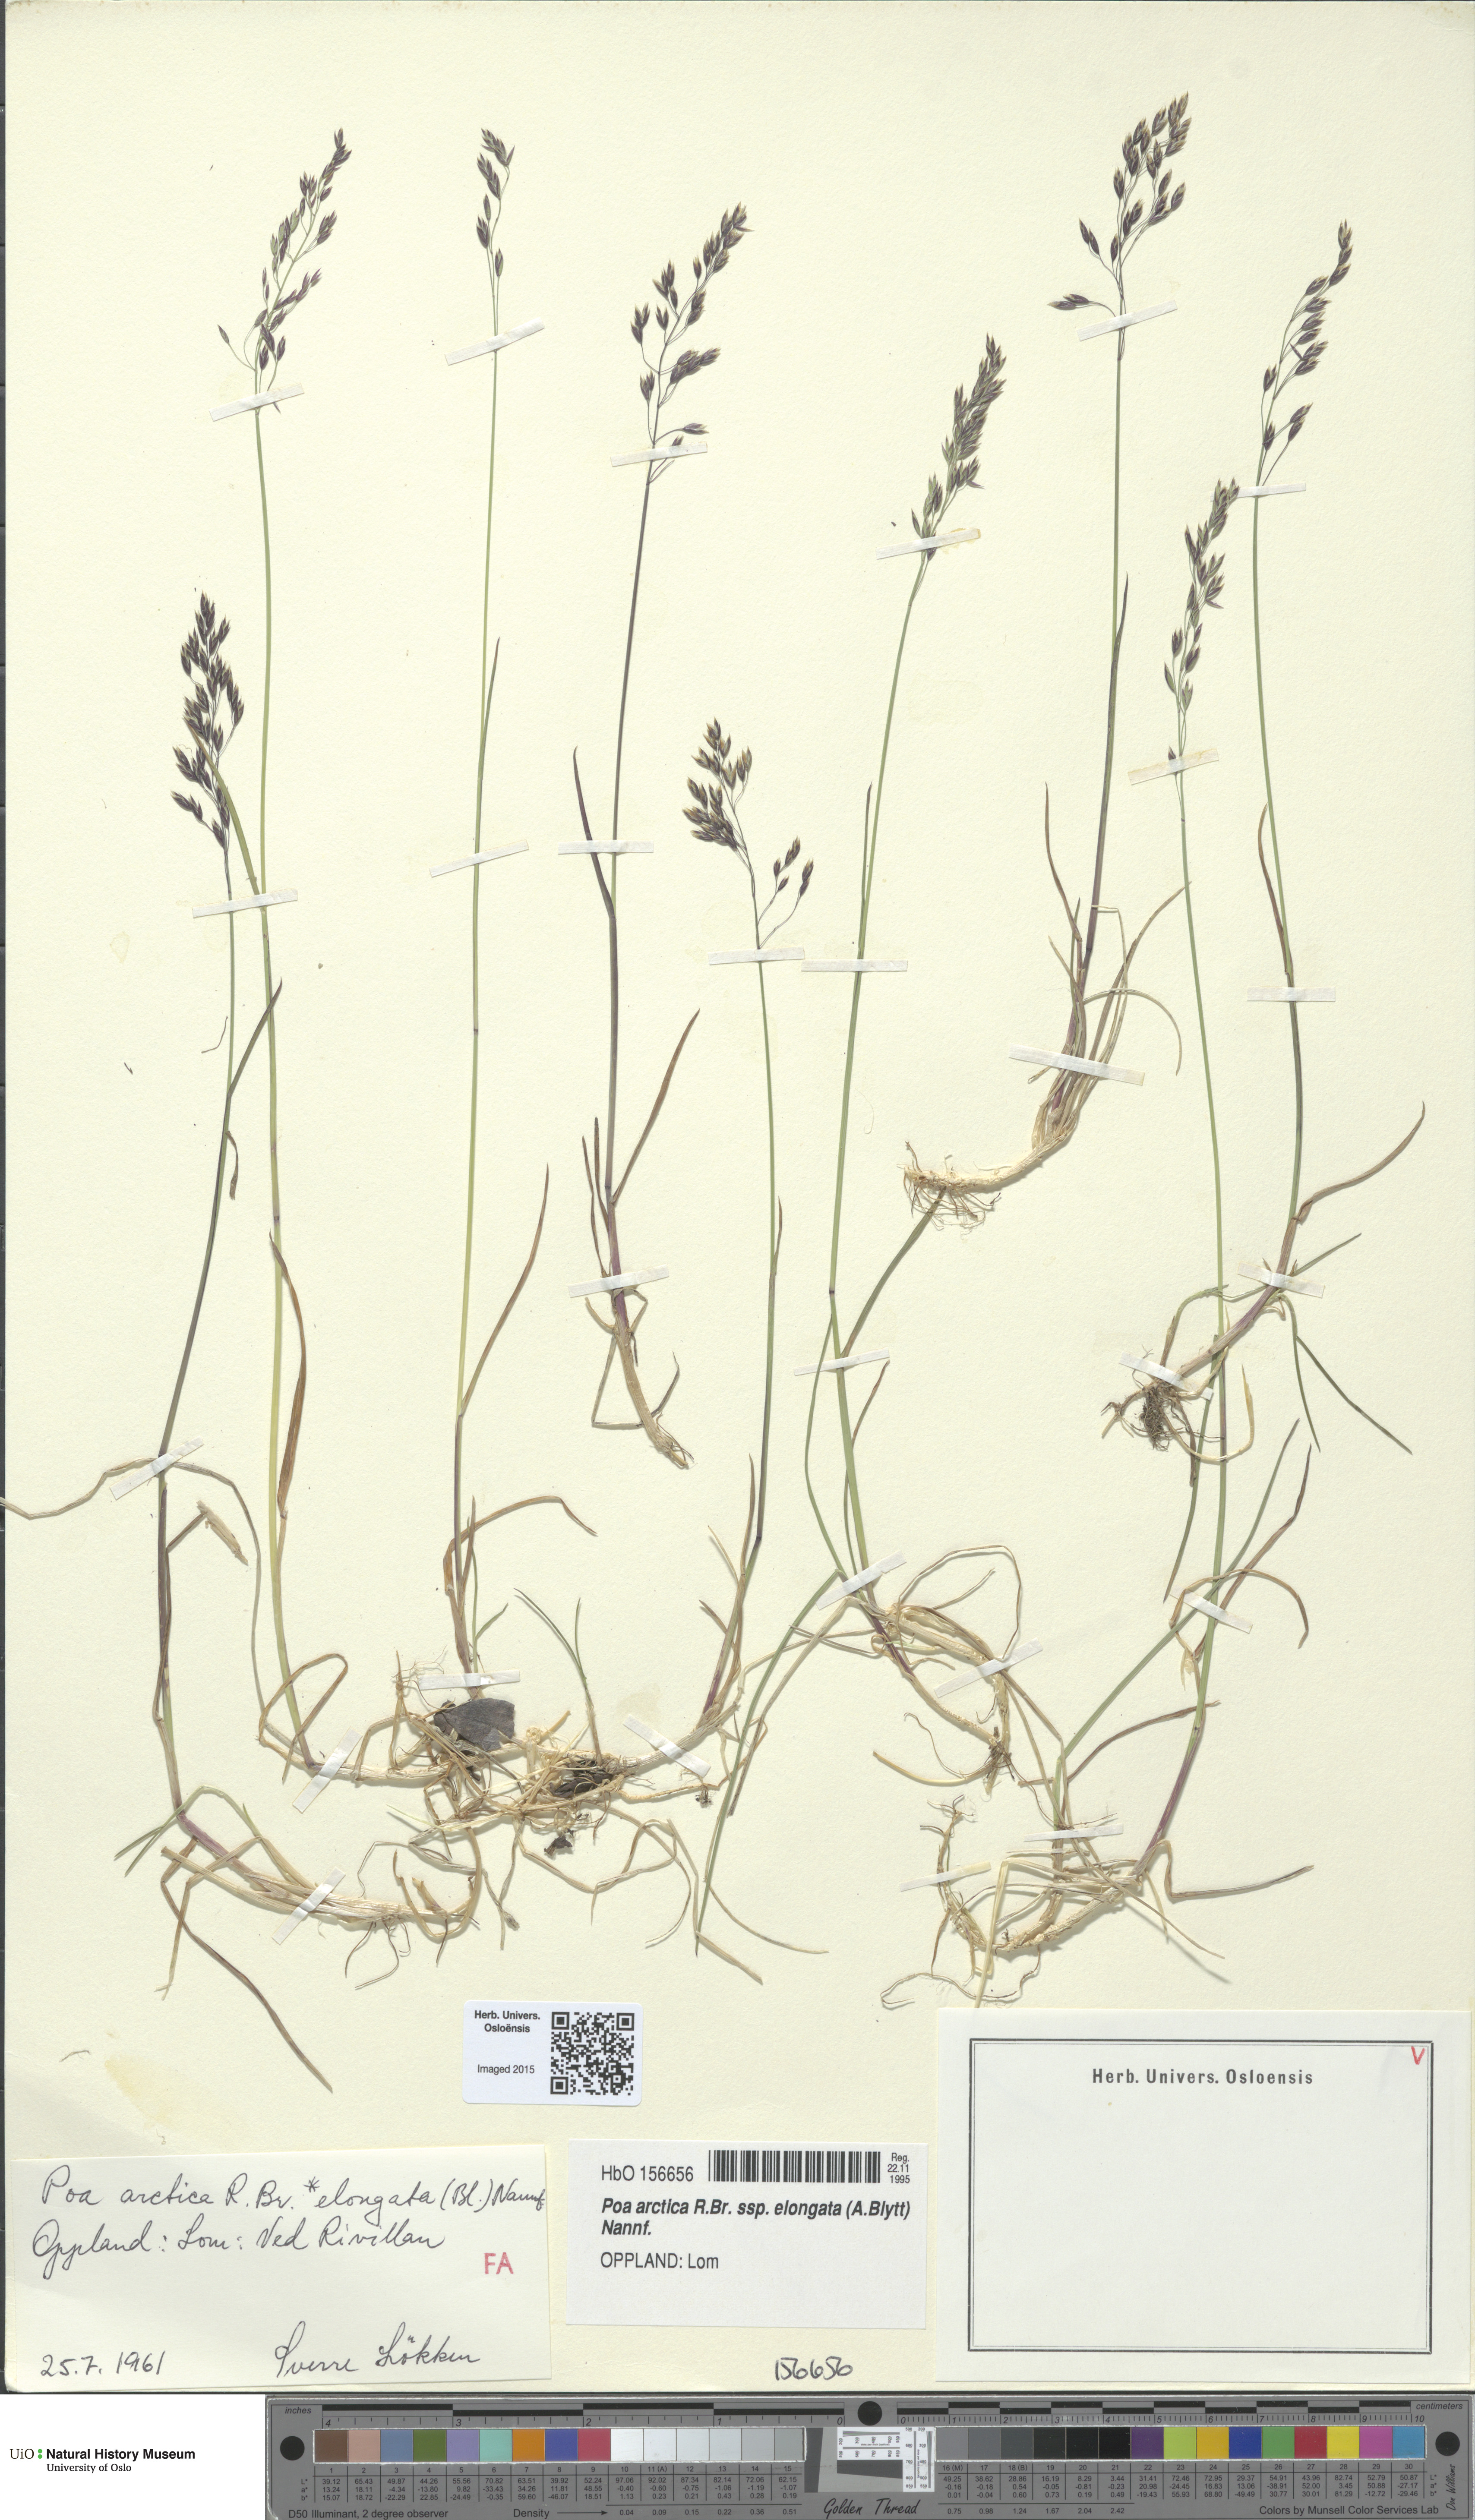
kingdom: Plantae
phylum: Tracheophyta
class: Liliopsida
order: Poales
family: Poaceae
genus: Poa
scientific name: Poa arctica
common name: Arctic bluegrass
